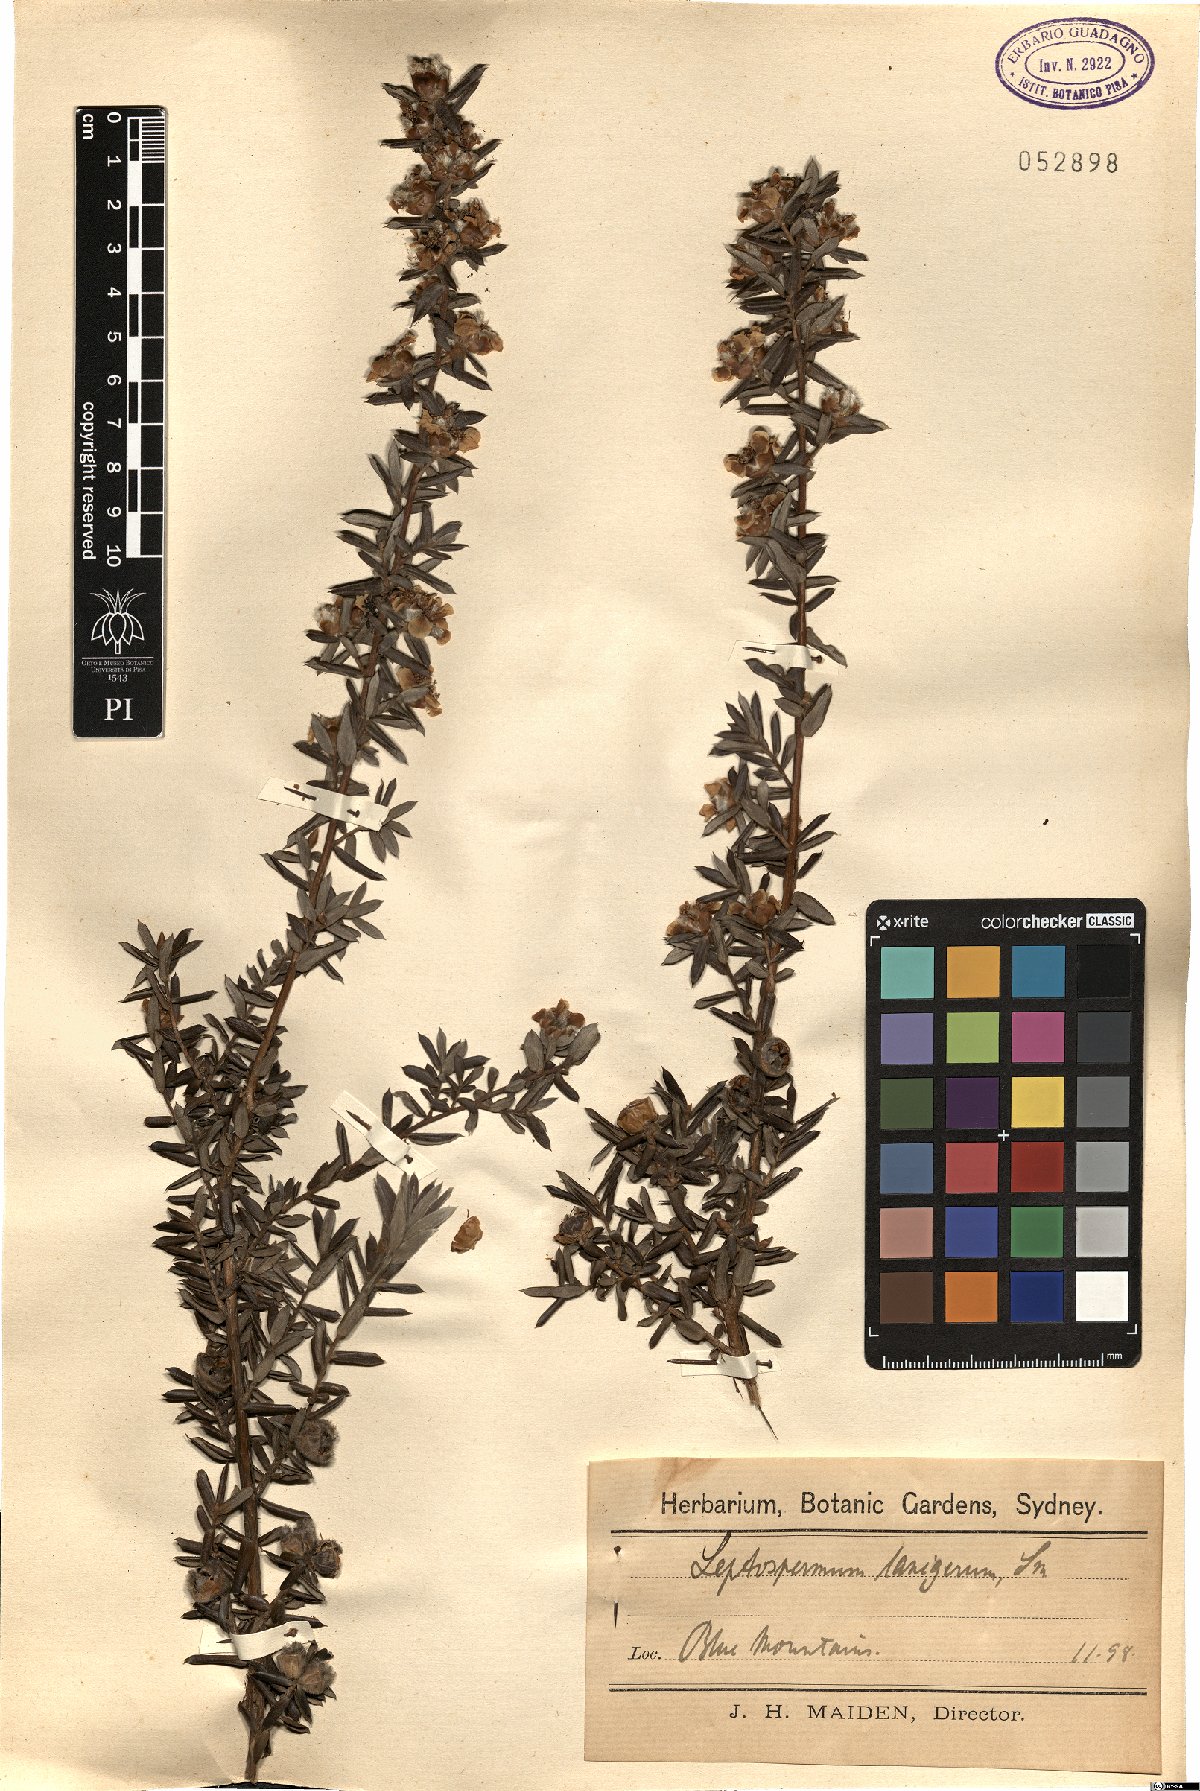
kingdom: Plantae
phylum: Tracheophyta
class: Magnoliopsida
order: Myrtales
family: Myrtaceae
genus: Leptospermum
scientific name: Leptospermum lanigerum
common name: Woolly tea-tree
